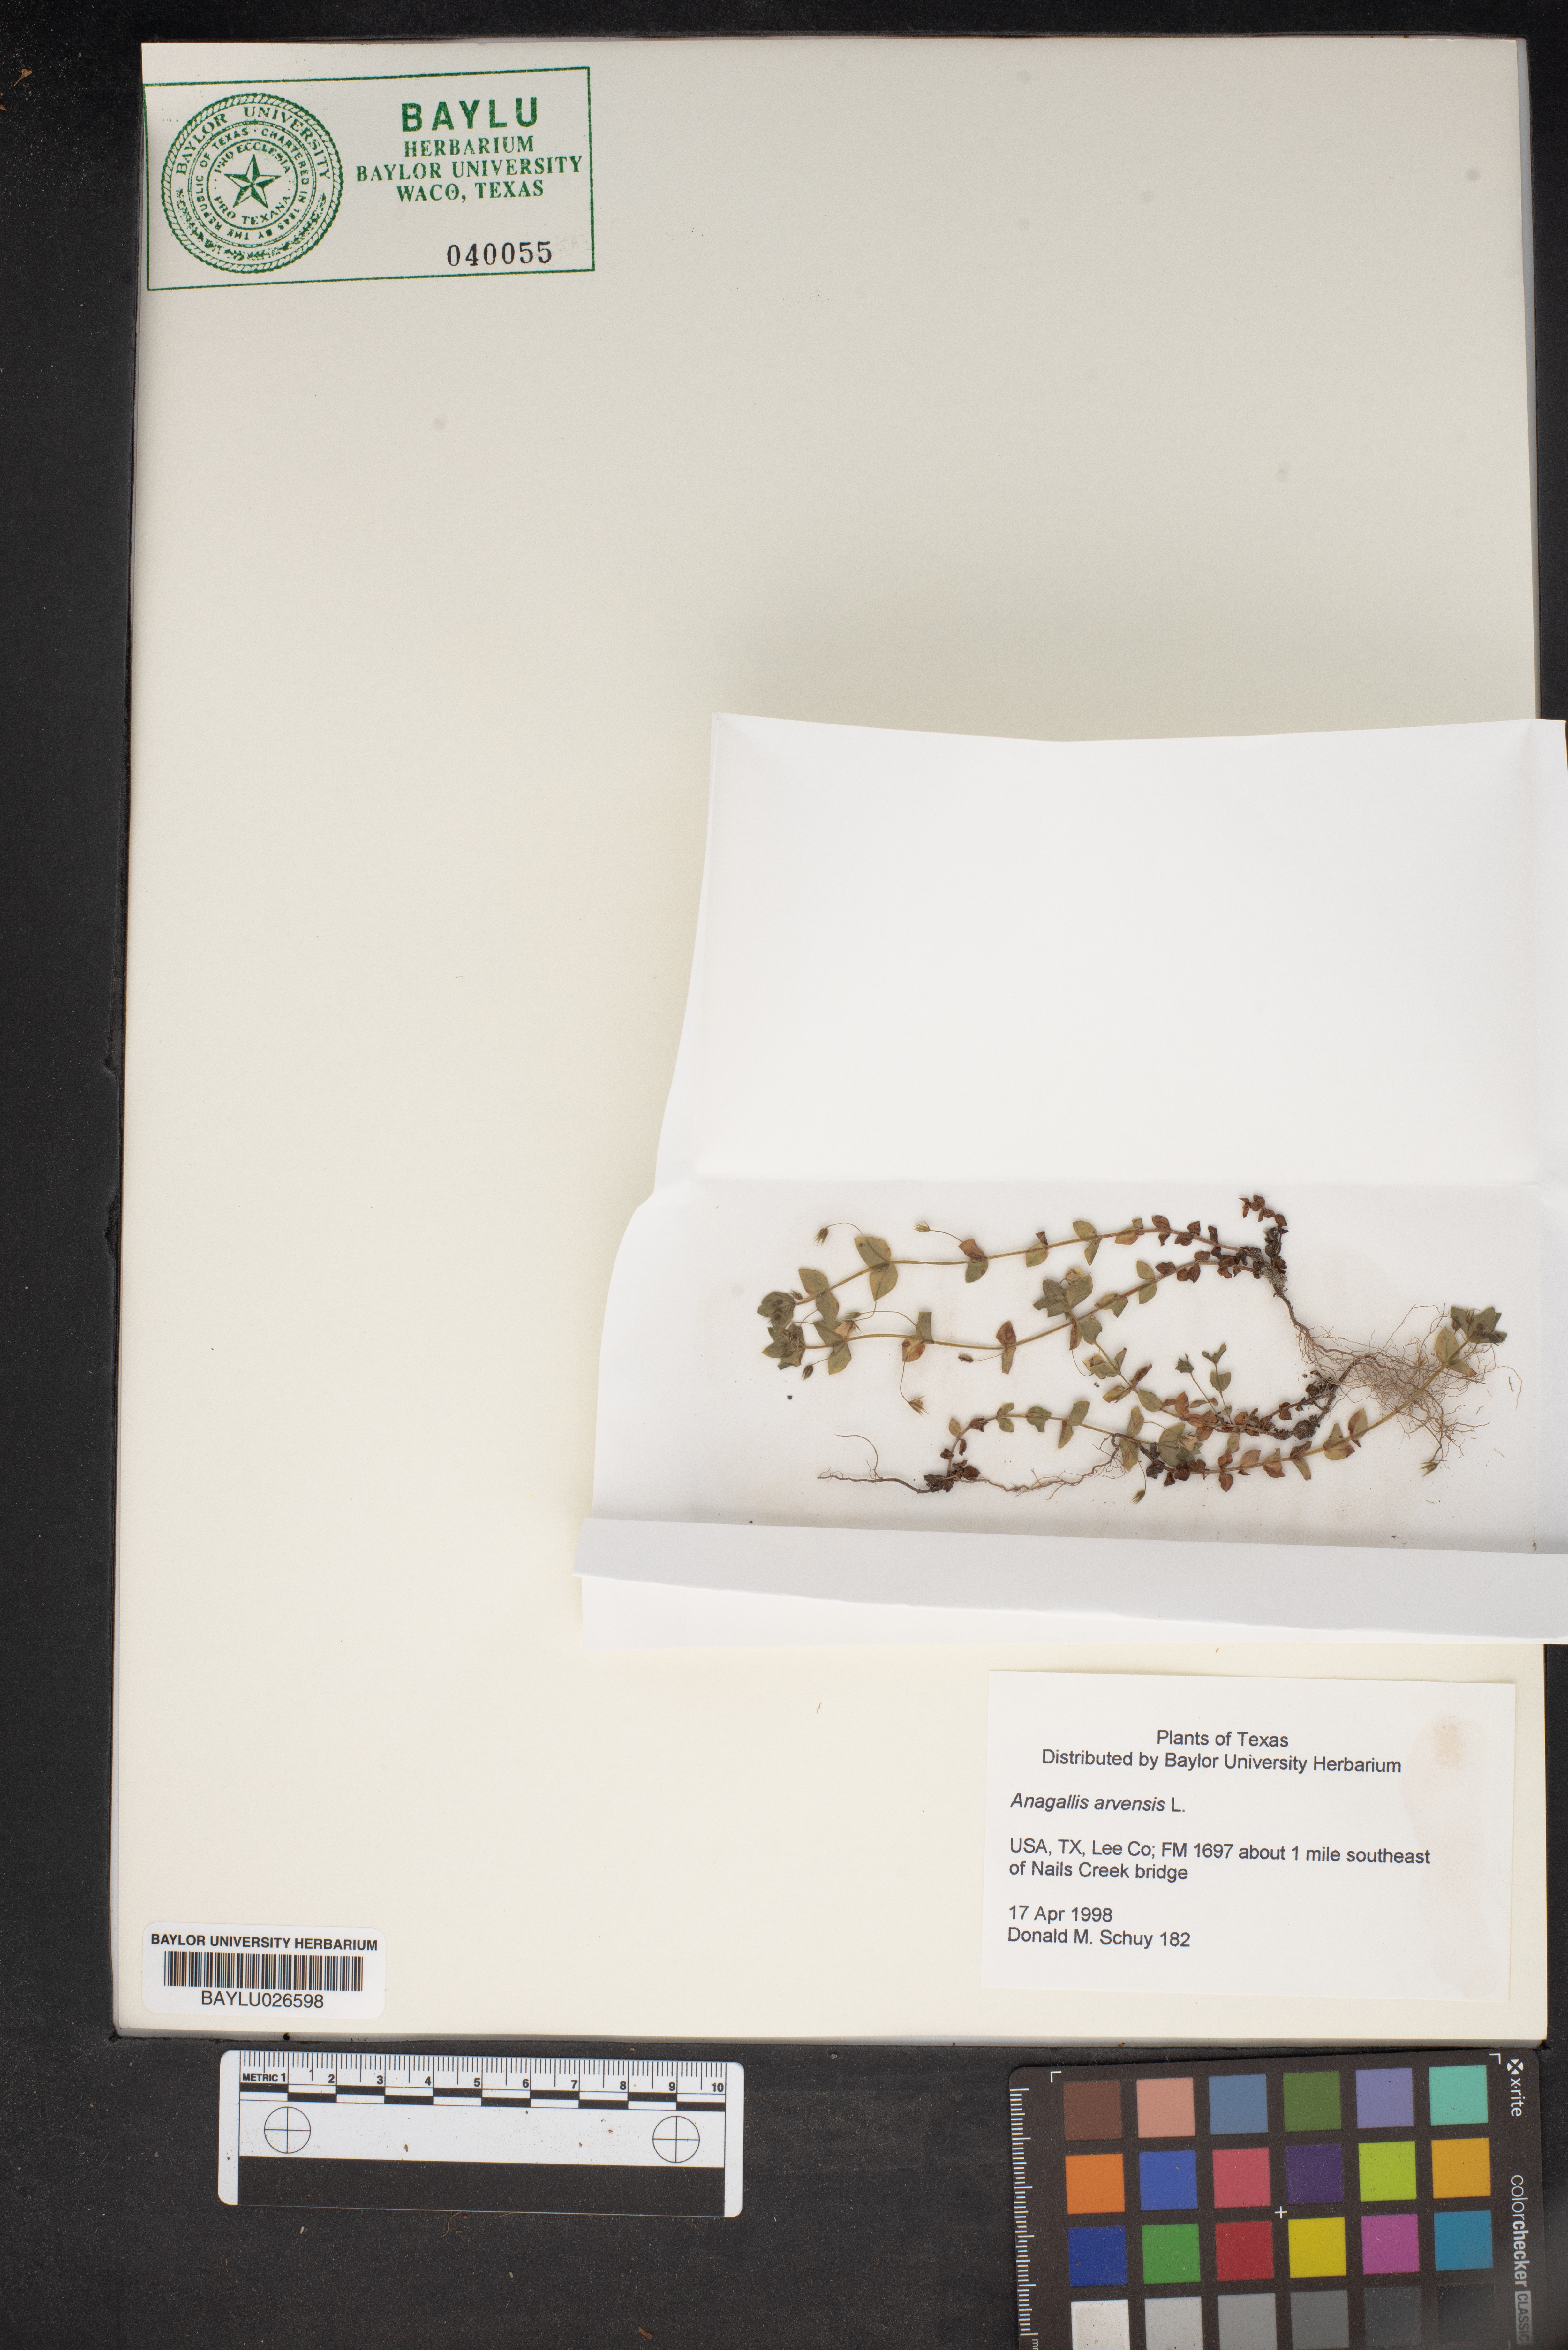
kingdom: Plantae
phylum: Tracheophyta
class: Magnoliopsida
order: Ericales
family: Primulaceae
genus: Lysimachia
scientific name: Lysimachia arvensis
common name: Scarlet pimpernel
